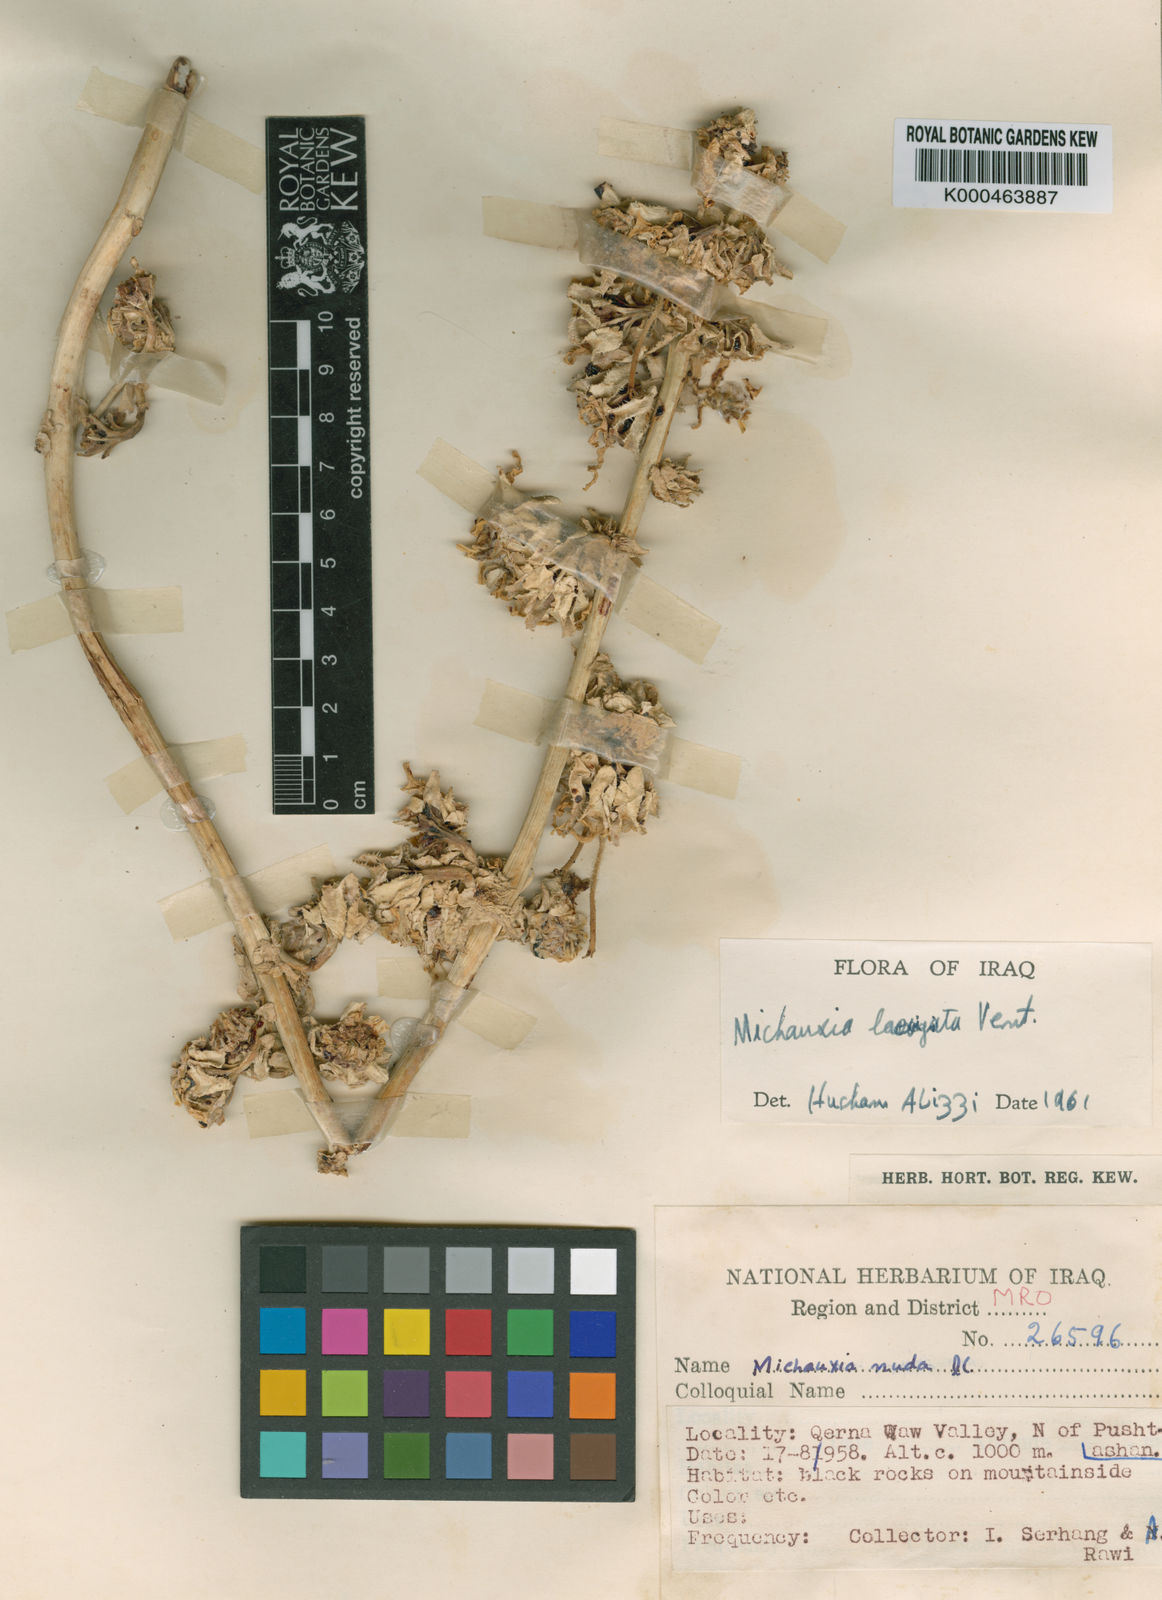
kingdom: Plantae
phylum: Tracheophyta
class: Magnoliopsida
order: Asterales
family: Campanulaceae
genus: Michauxia
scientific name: Michauxia laevigata
